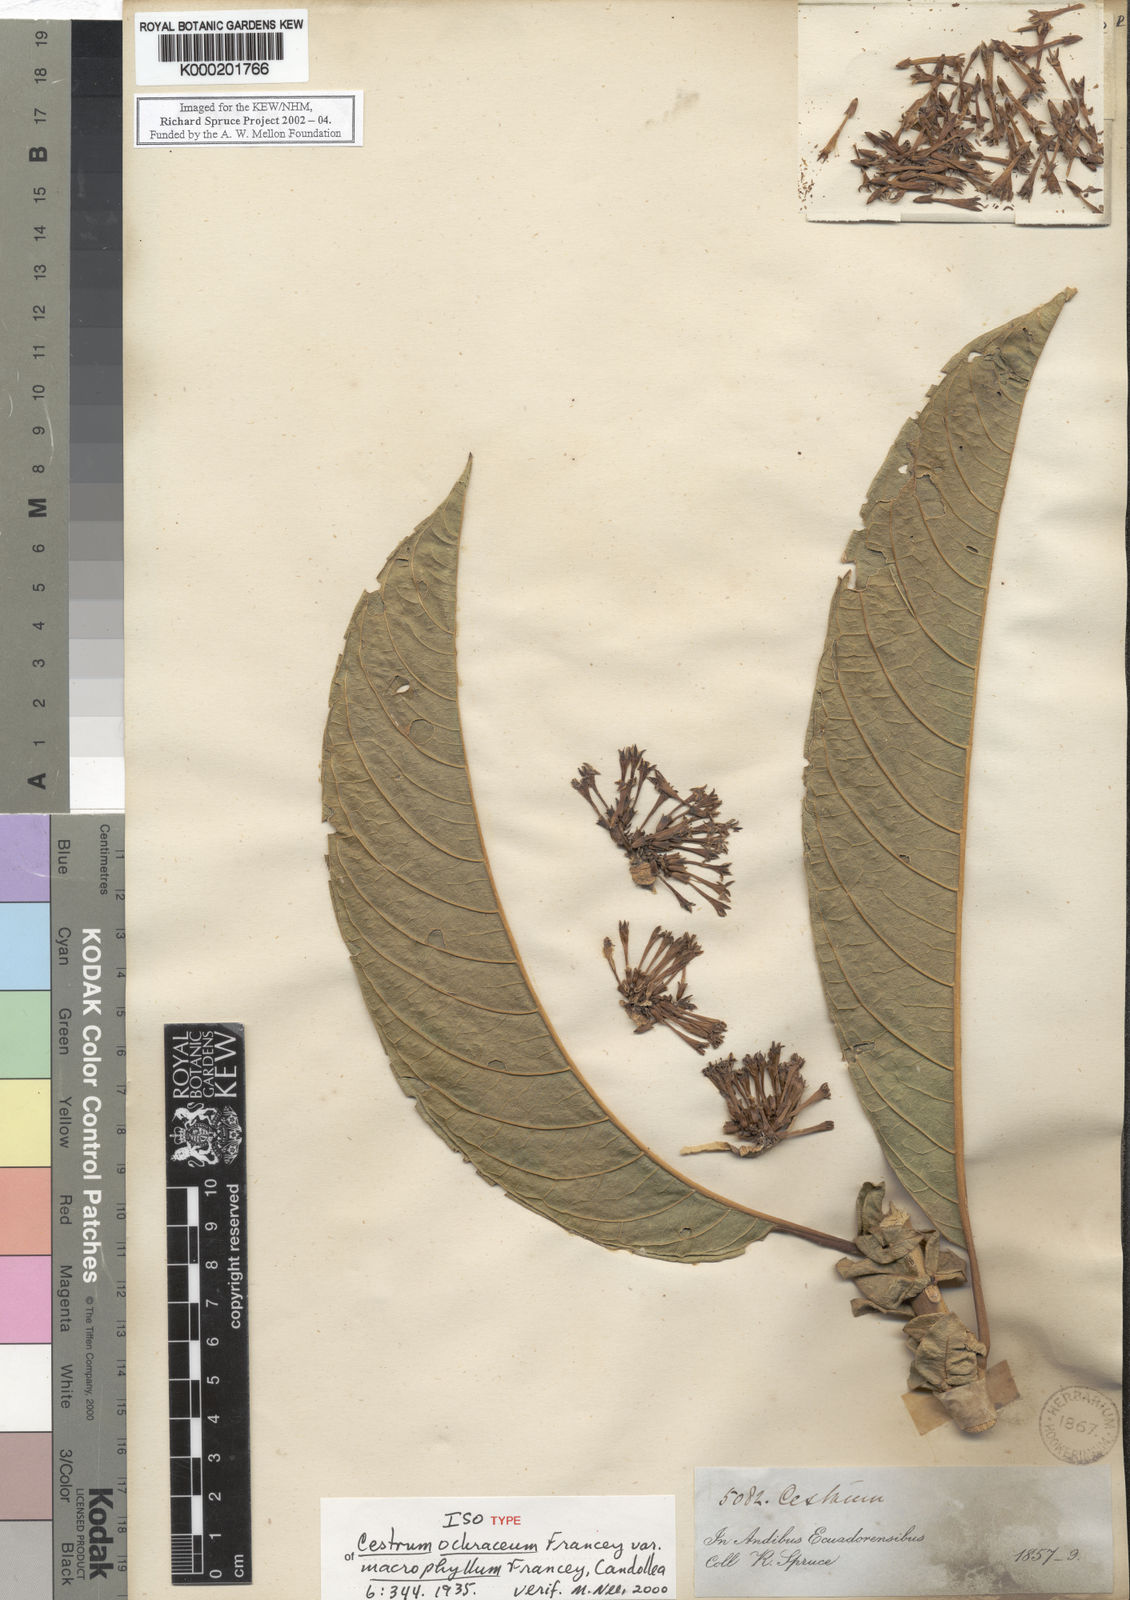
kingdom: Plantae
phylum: Tracheophyta
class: Magnoliopsida
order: Solanales
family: Solanaceae
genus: Cestrum
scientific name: Cestrum ochraceum
